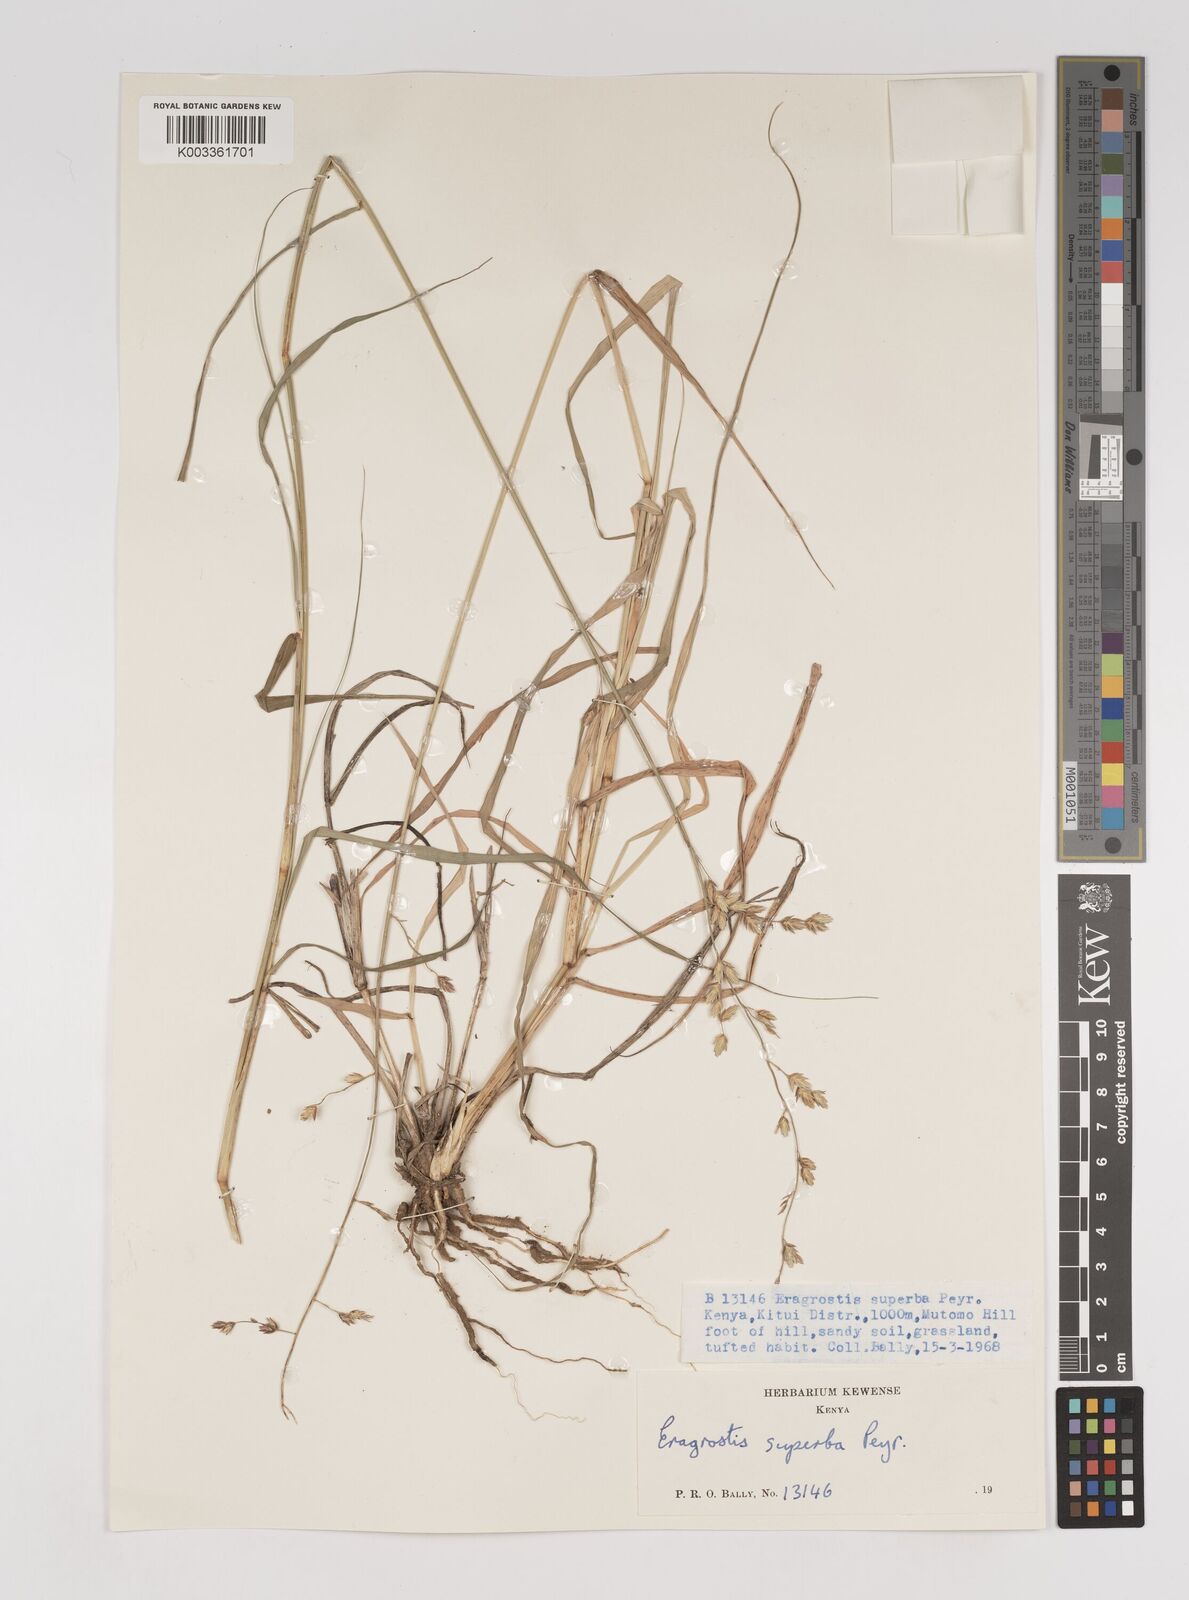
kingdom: Plantae
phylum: Tracheophyta
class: Liliopsida
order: Poales
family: Poaceae
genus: Eragrostis
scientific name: Eragrostis superba
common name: Wilman lovegrass
